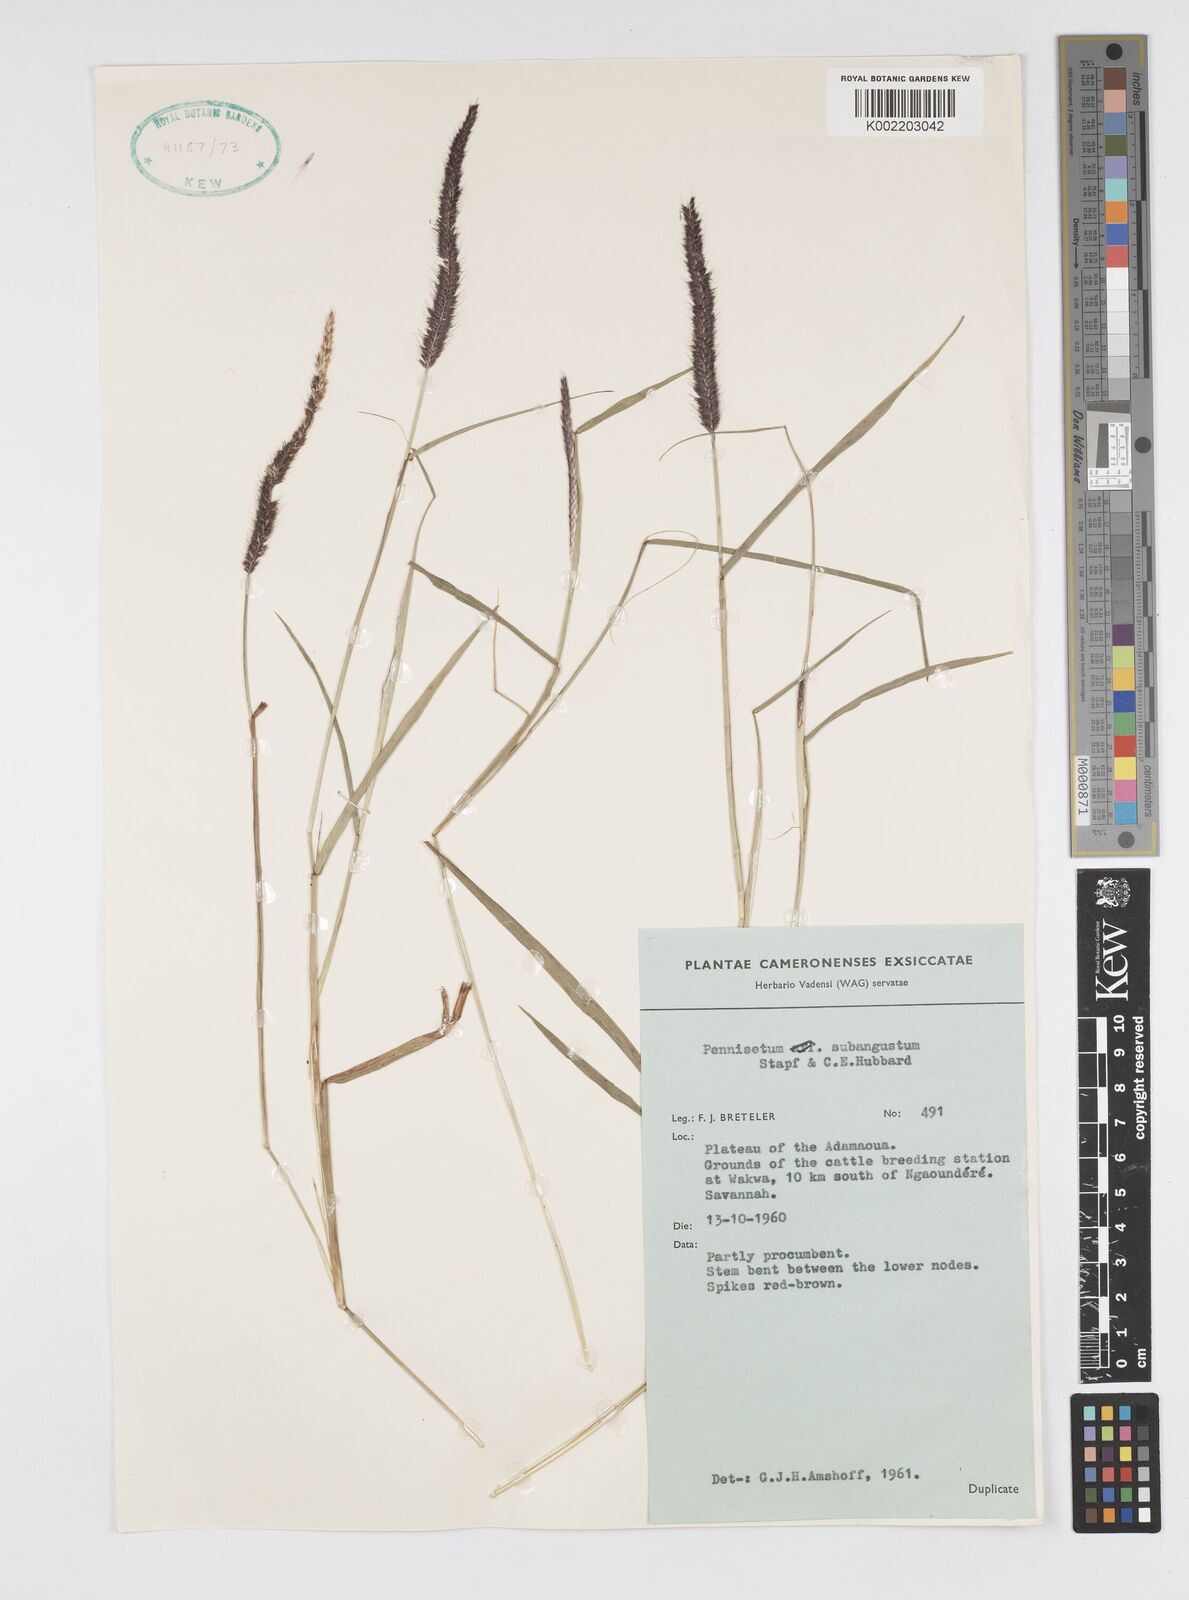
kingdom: Plantae
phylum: Tracheophyta
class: Liliopsida
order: Poales
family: Poaceae
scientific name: Poaceae
